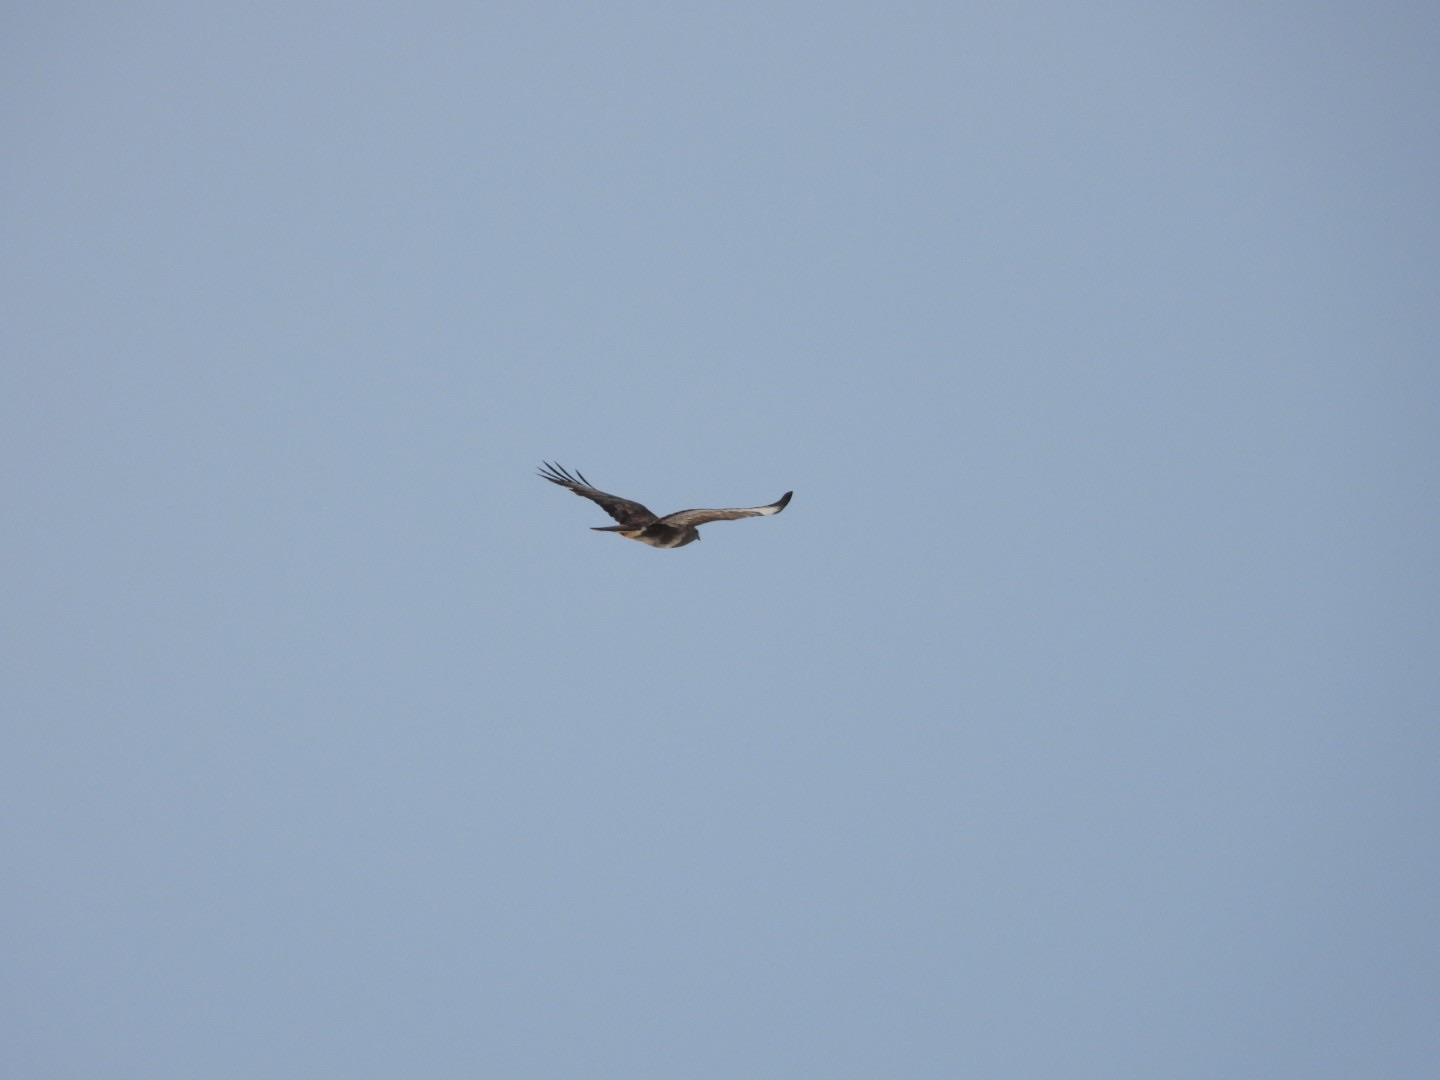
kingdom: Animalia
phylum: Chordata
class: Aves
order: Accipitriformes
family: Accipitridae
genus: Buteo
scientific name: Buteo buteo
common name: Musvåge
